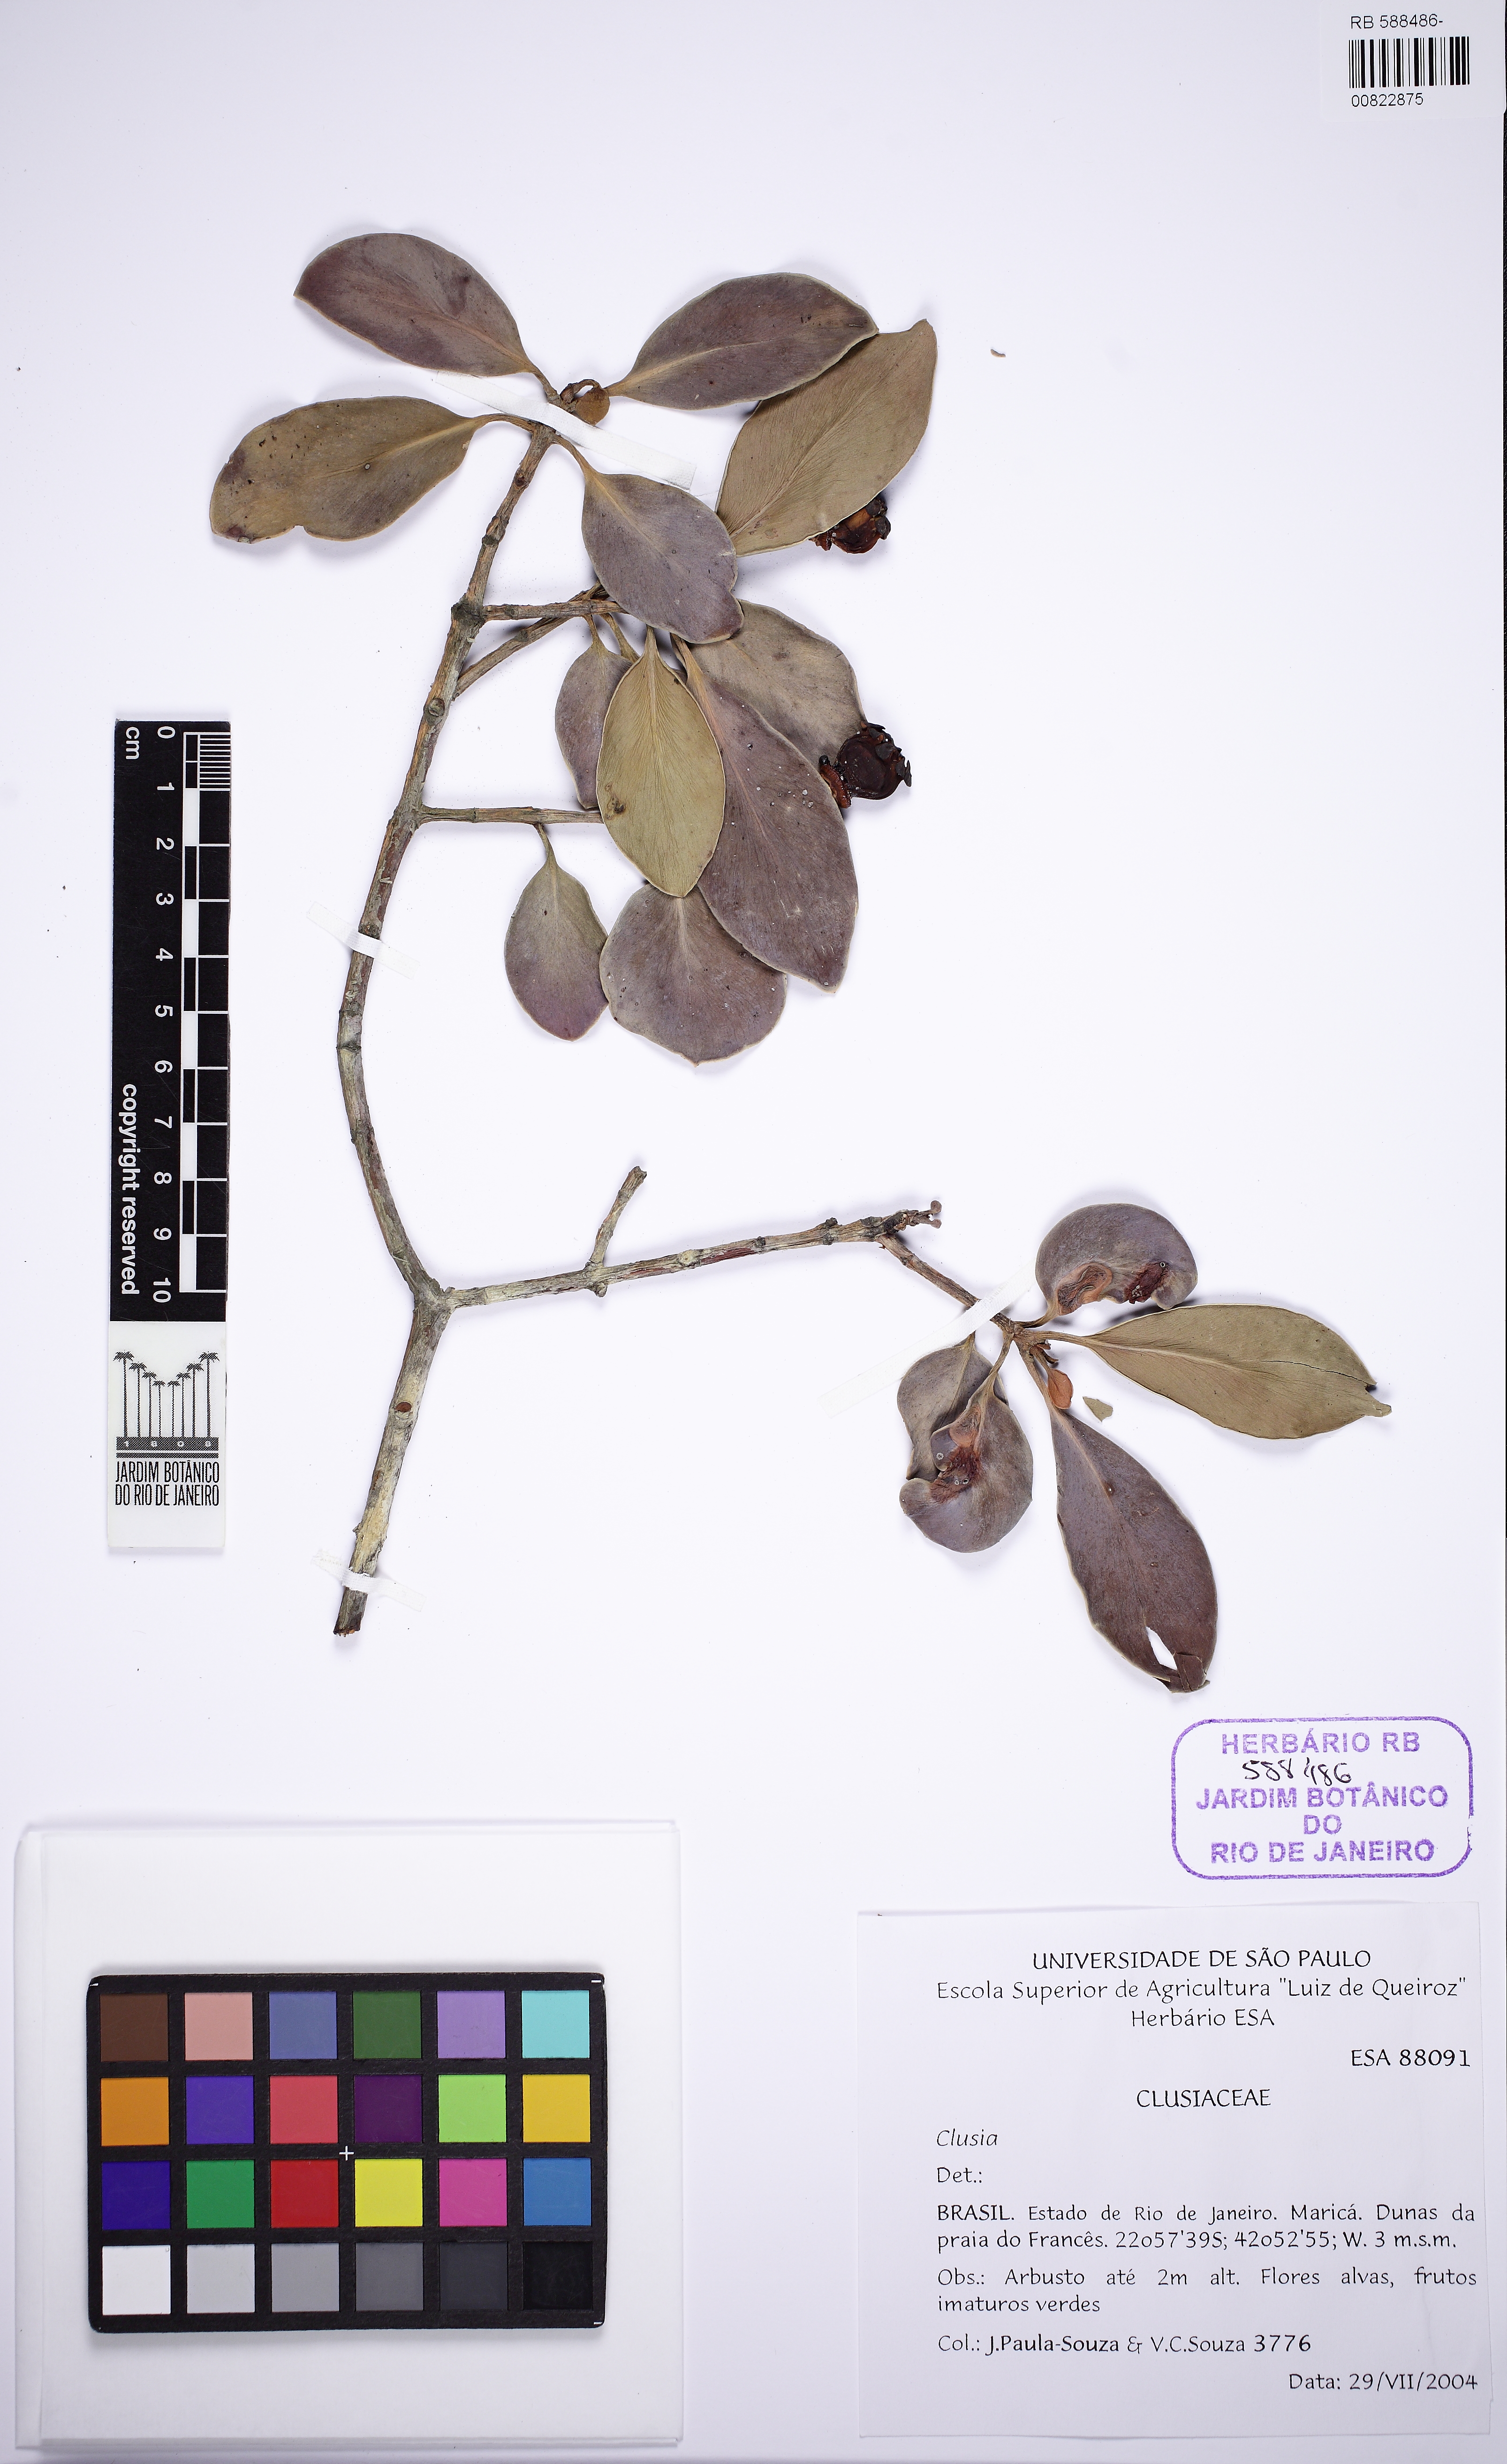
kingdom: Plantae
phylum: Tracheophyta
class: Magnoliopsida
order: Malpighiales
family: Clusiaceae
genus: Clusia
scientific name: Clusia lanceolata
